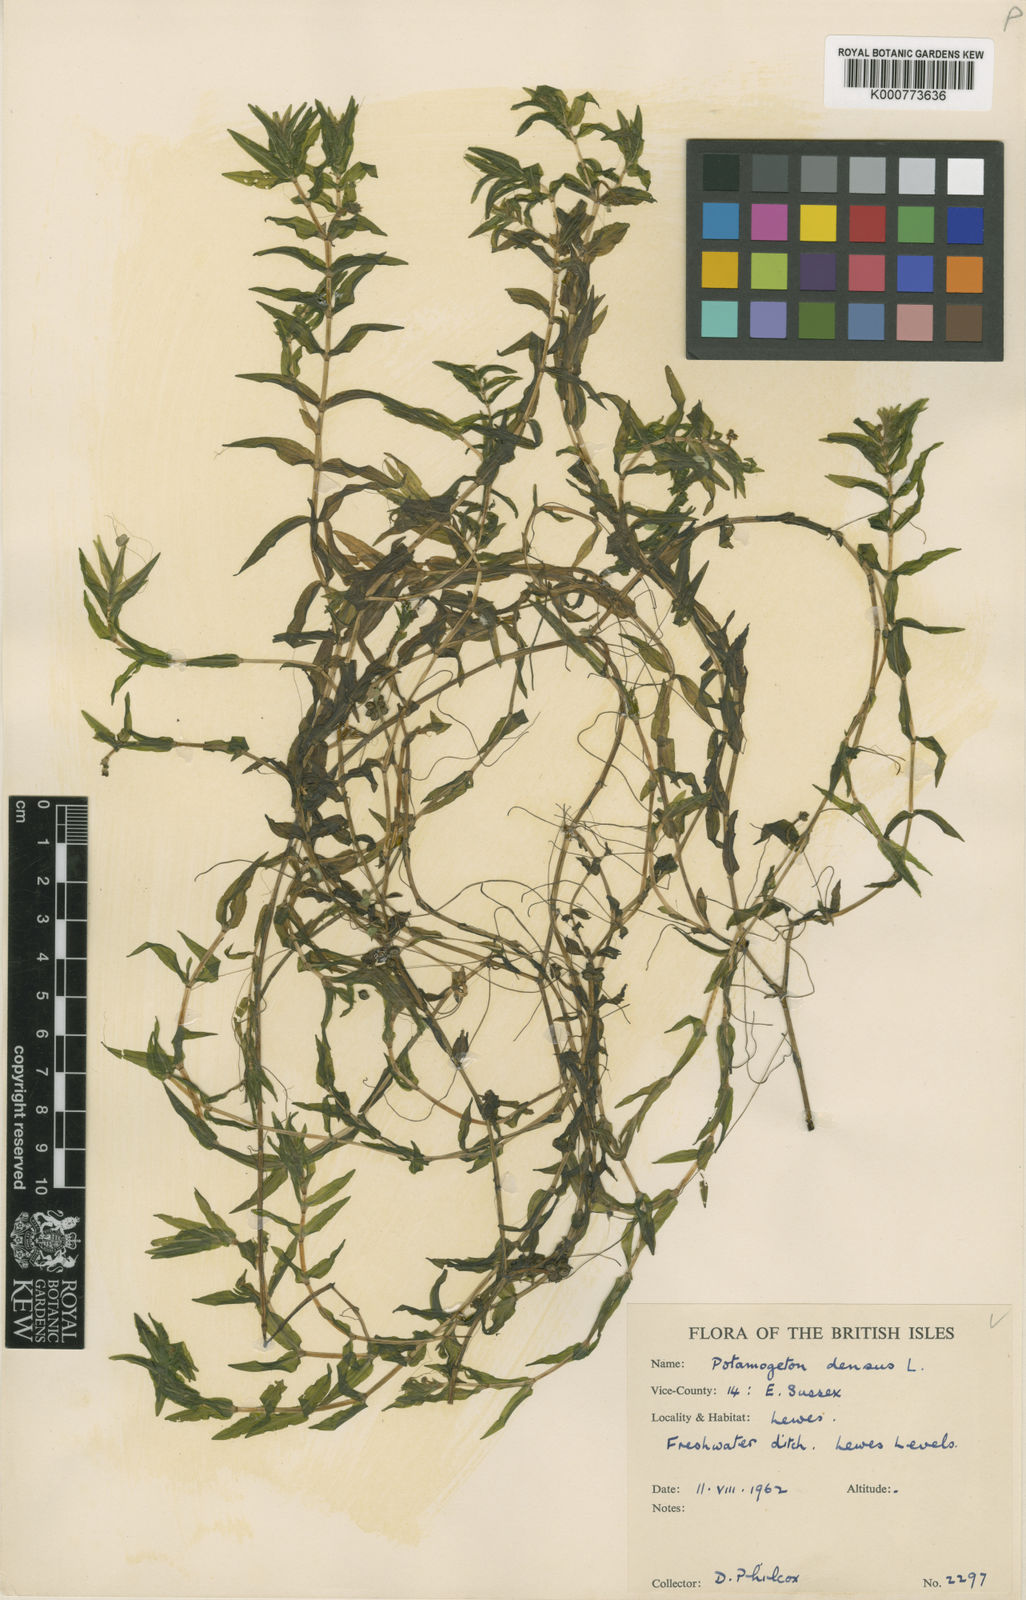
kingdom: Plantae
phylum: Tracheophyta
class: Liliopsida
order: Alismatales
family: Potamogetonaceae
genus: Groenlandia
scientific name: Groenlandia densa
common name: Opposite-leaved pondweed
